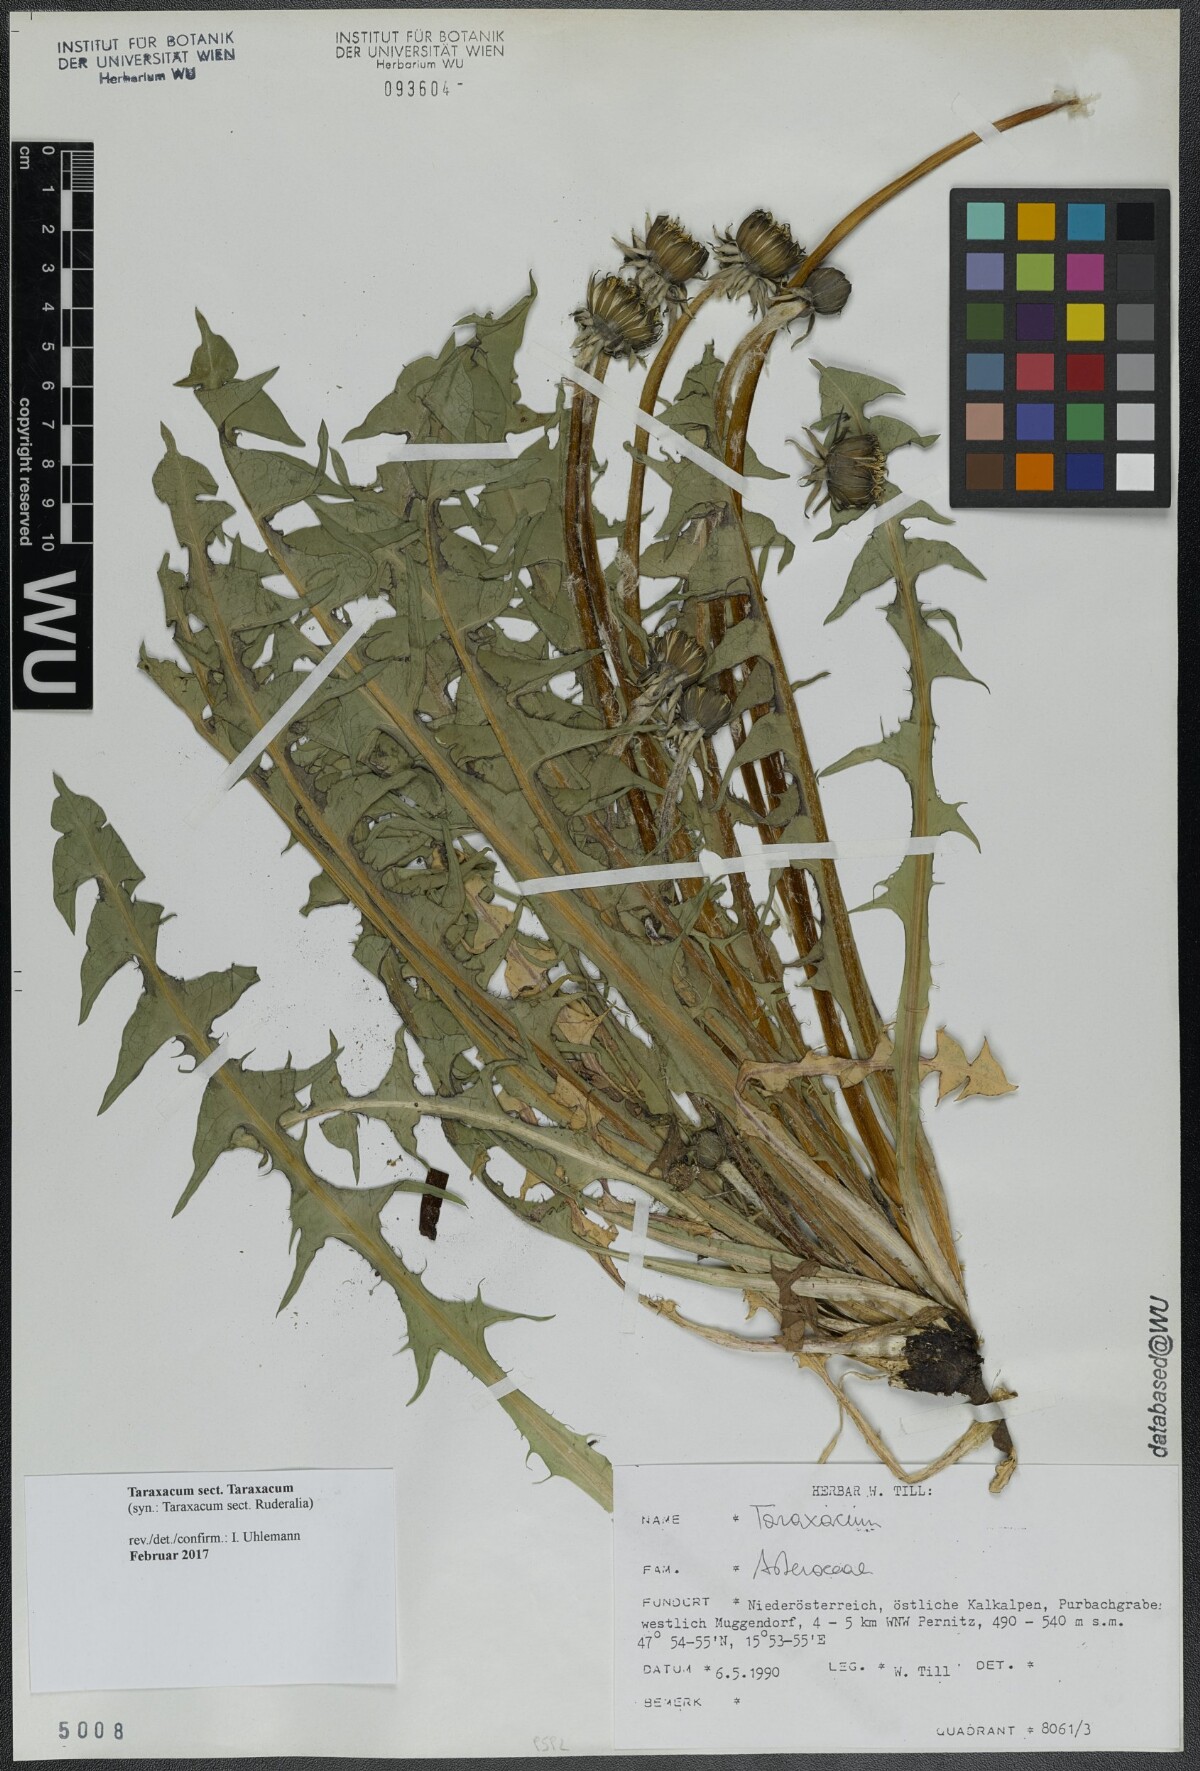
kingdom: Plantae
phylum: Tracheophyta
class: Magnoliopsida
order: Asterales
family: Asteraceae
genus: Taraxacum
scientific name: Taraxacum
